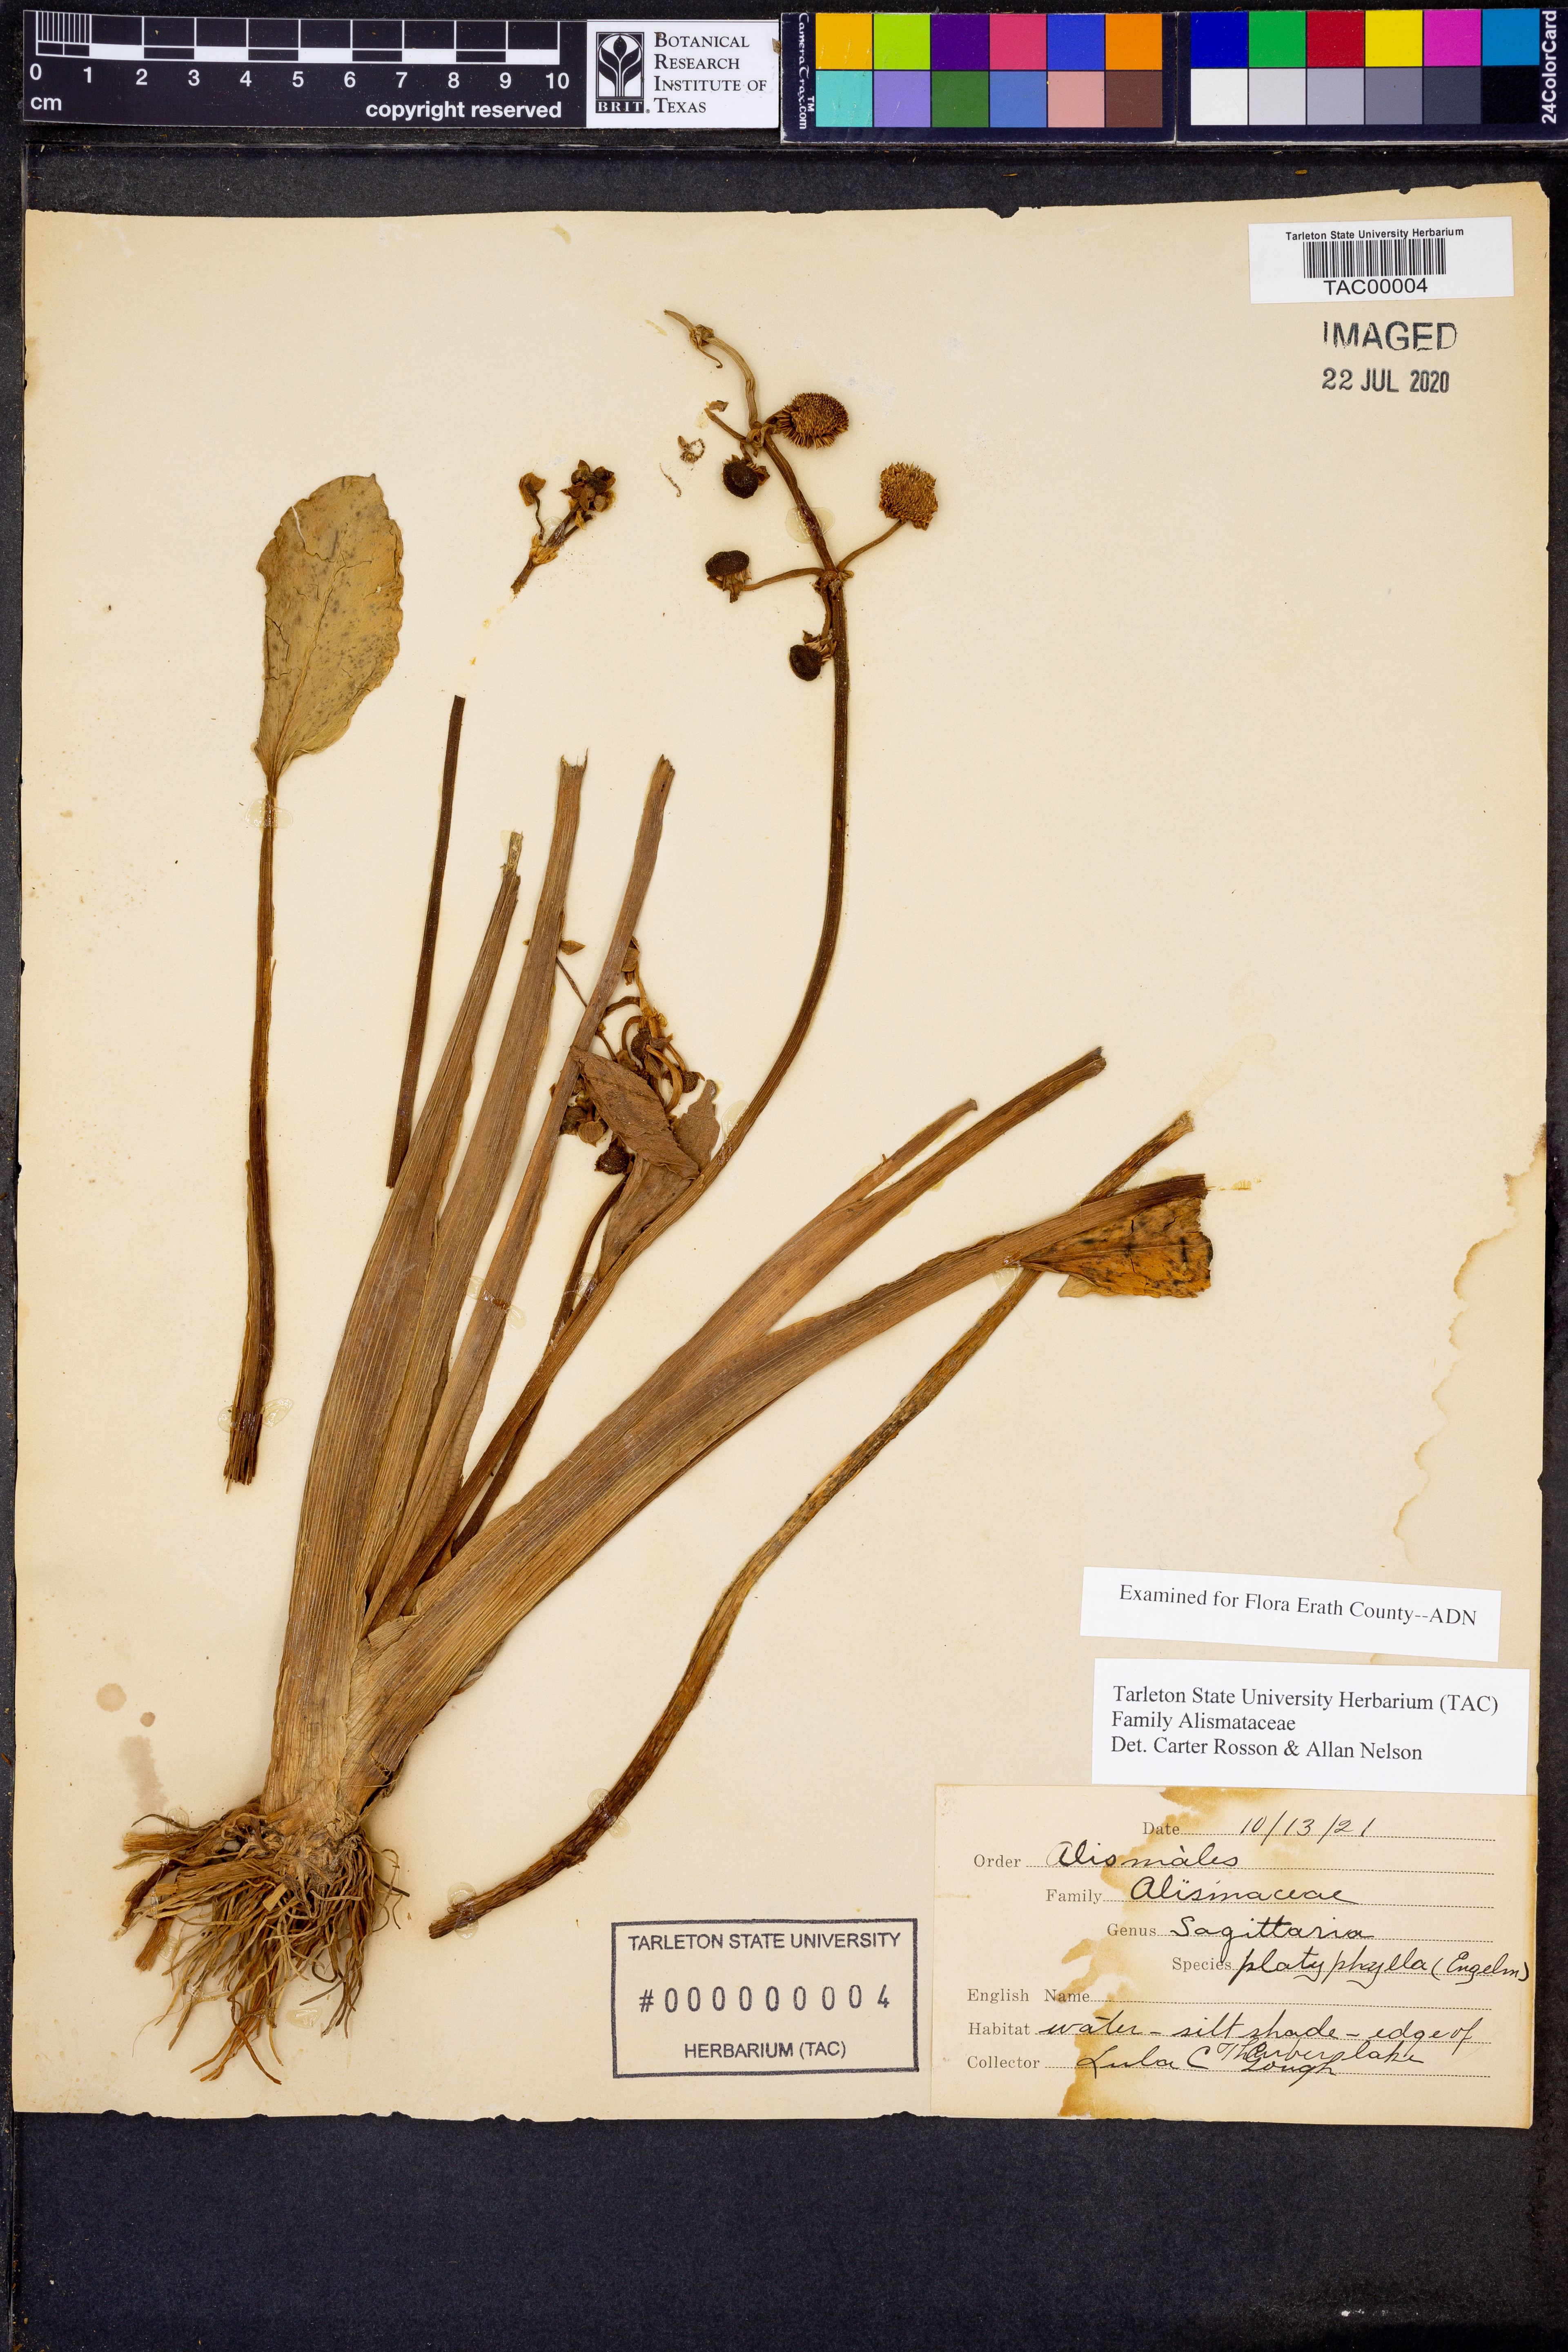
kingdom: Plantae
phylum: Tracheophyta
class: Liliopsida
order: Alismatales
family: Alismataceae
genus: Sagittaria
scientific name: Sagittaria platyphylla
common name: Broad-leaf arrowhead
